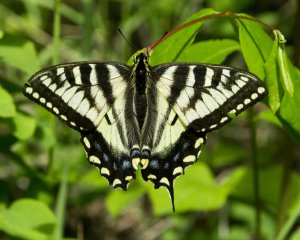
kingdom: Animalia
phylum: Arthropoda
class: Insecta
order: Lepidoptera
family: Papilionidae
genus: Pterourus
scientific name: Pterourus canadensis
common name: Canadian Tiger Swallowtail
